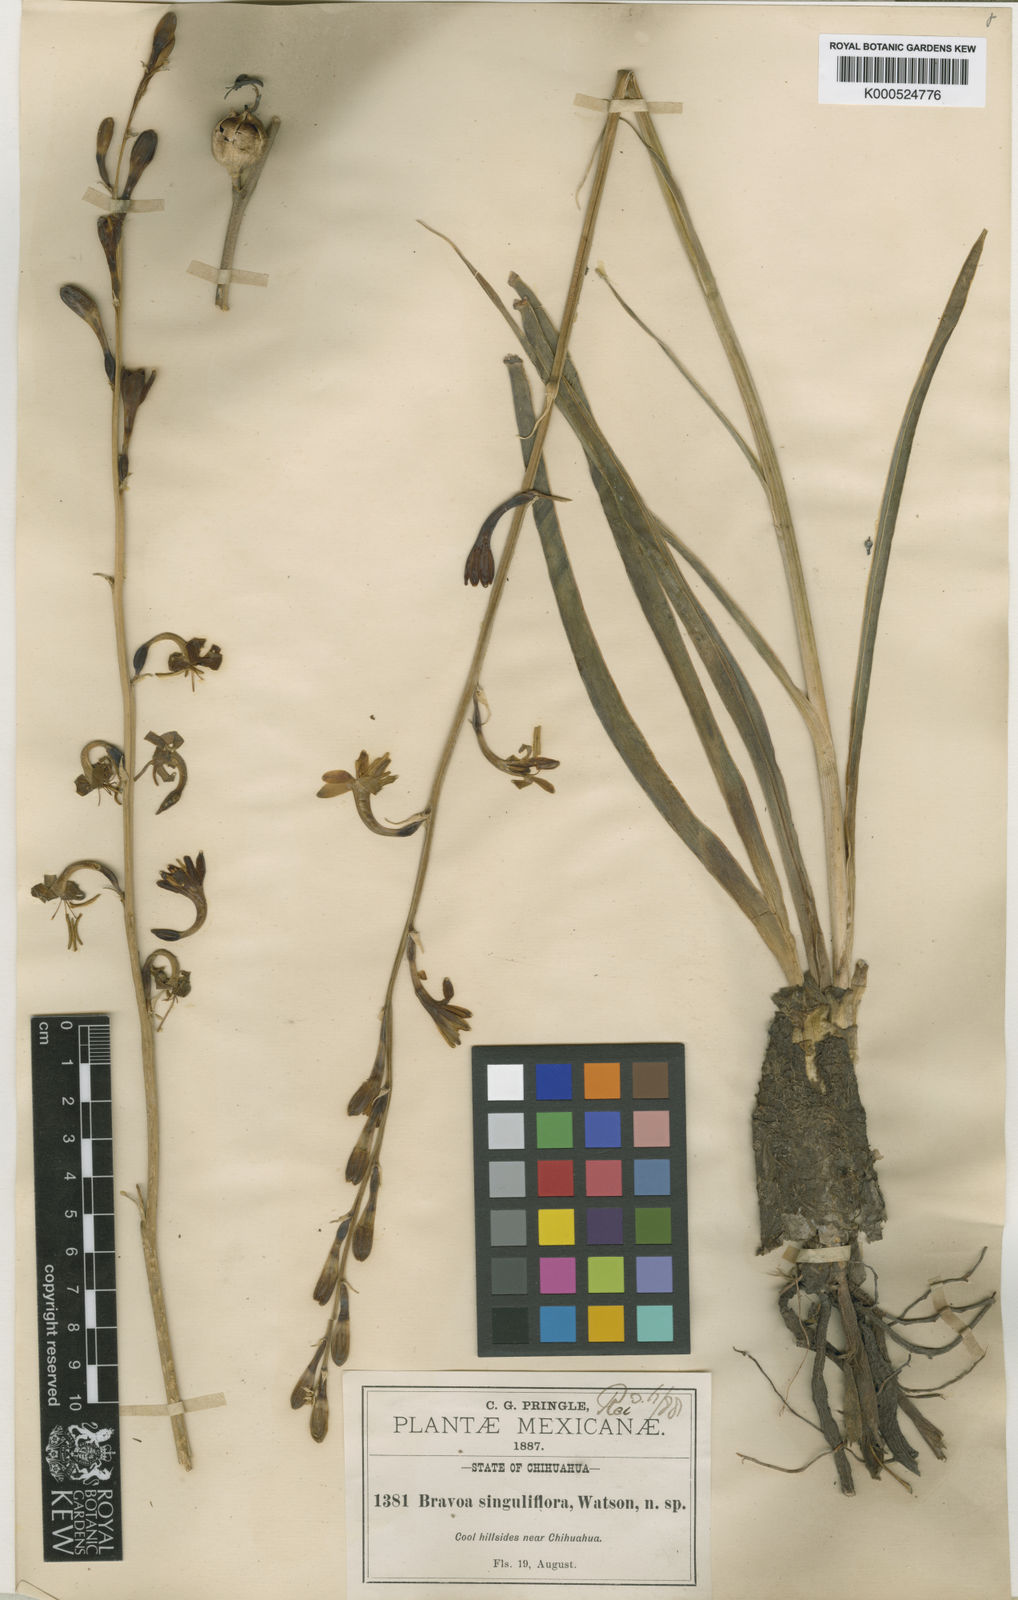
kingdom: Plantae
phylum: Tracheophyta
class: Liliopsida
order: Asparagales
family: Asparagaceae
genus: Agave
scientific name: Agave singuliflora
